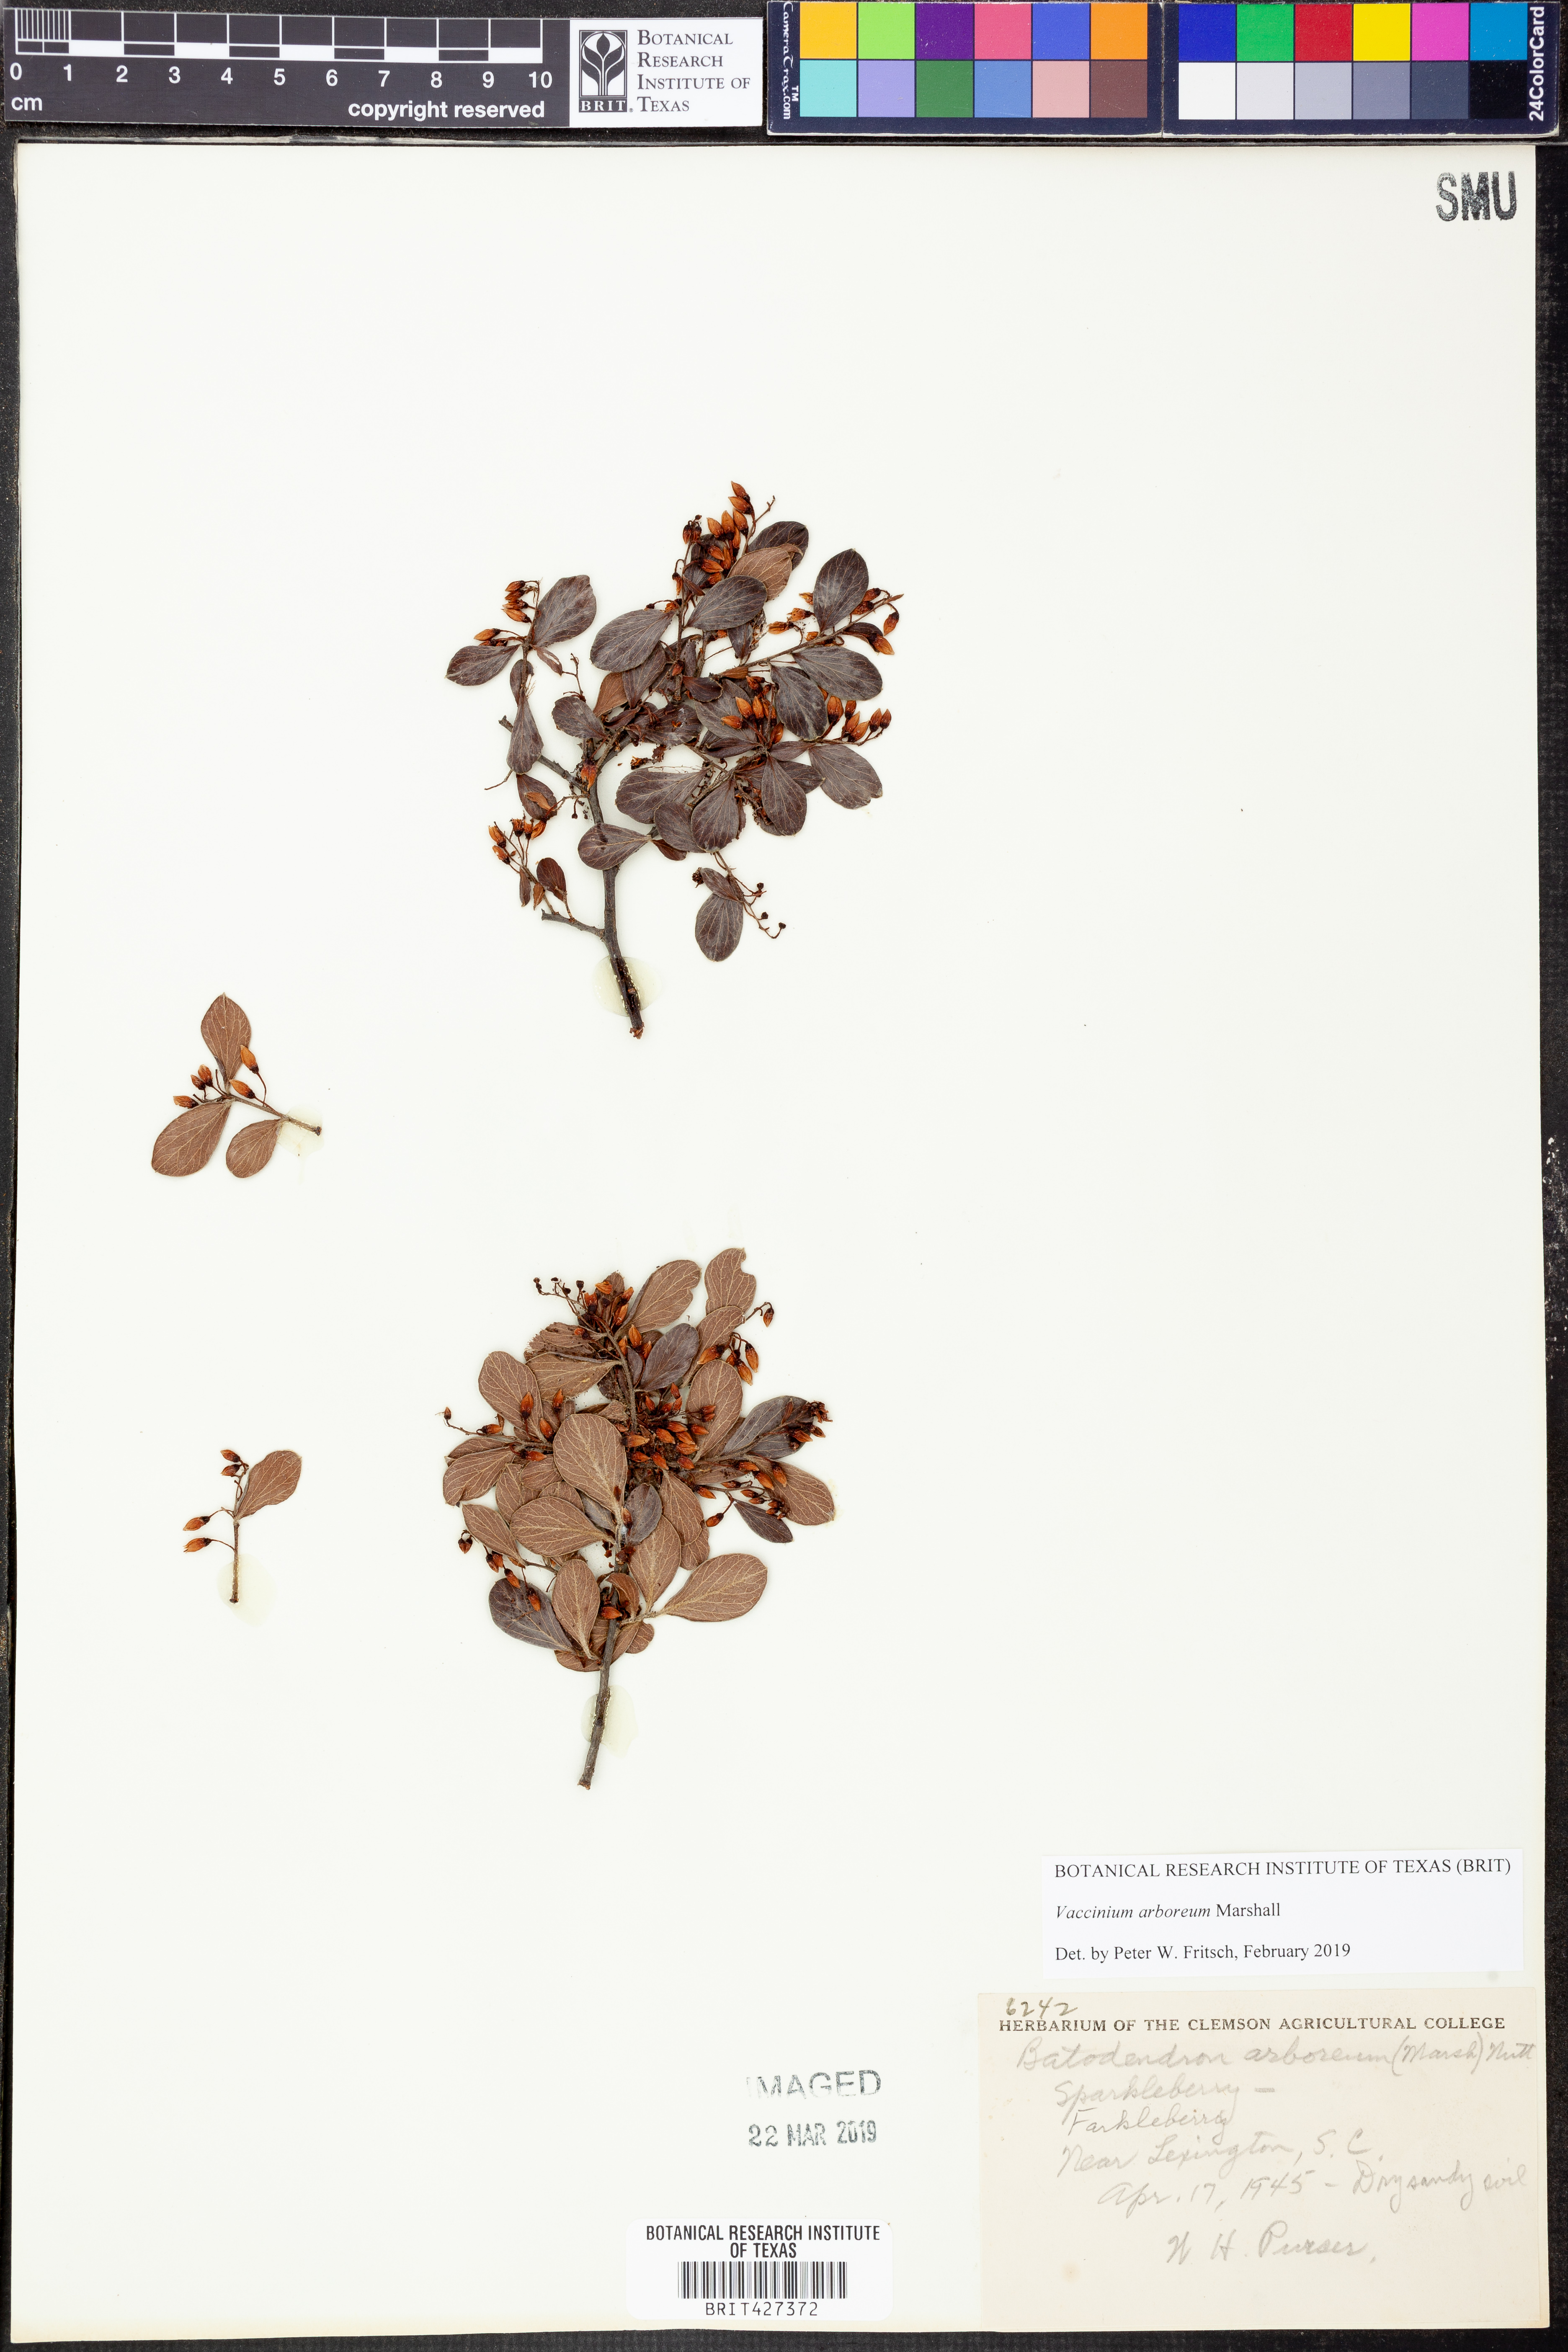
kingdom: Plantae
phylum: Tracheophyta
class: Magnoliopsida
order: Ericales
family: Ericaceae
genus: Vaccinium
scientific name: Vaccinium arboreum
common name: Farkleberry
